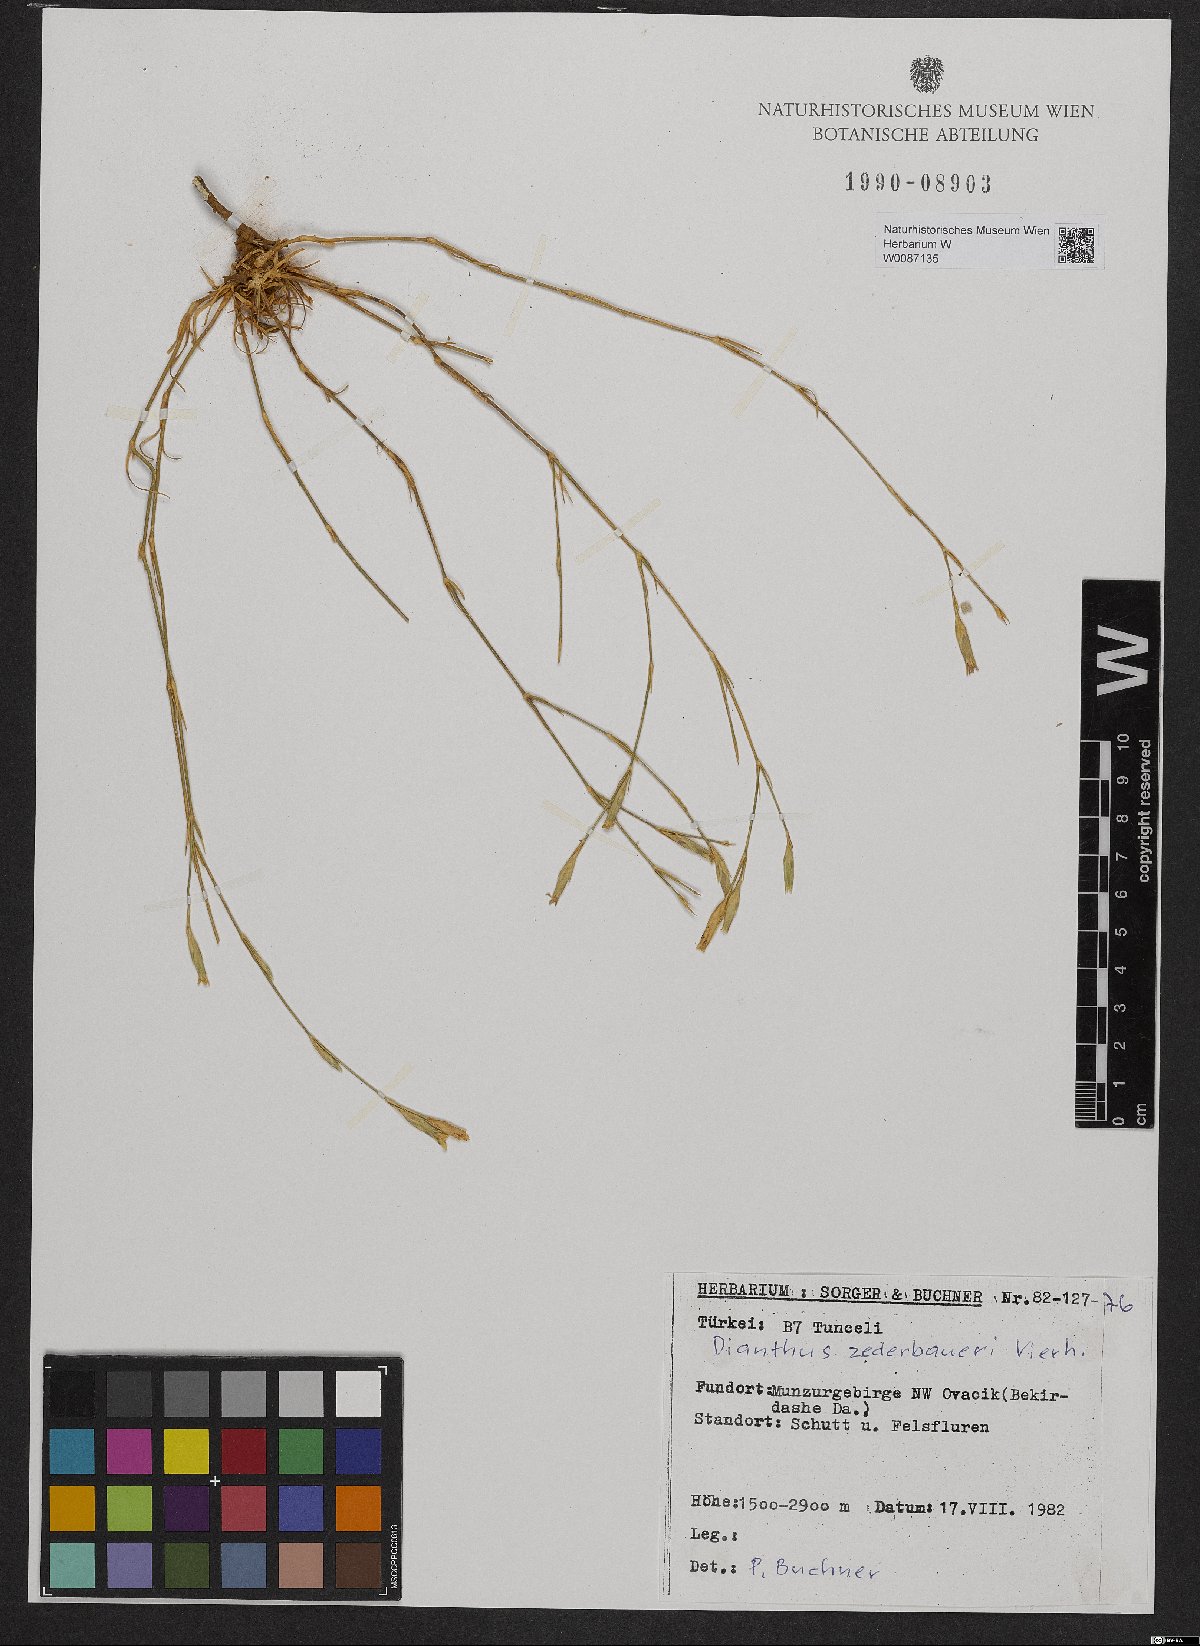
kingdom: Plantae
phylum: Tracheophyta
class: Magnoliopsida
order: Caryophyllales
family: Caryophyllaceae
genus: Dianthus
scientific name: Dianthus zederbaueri
